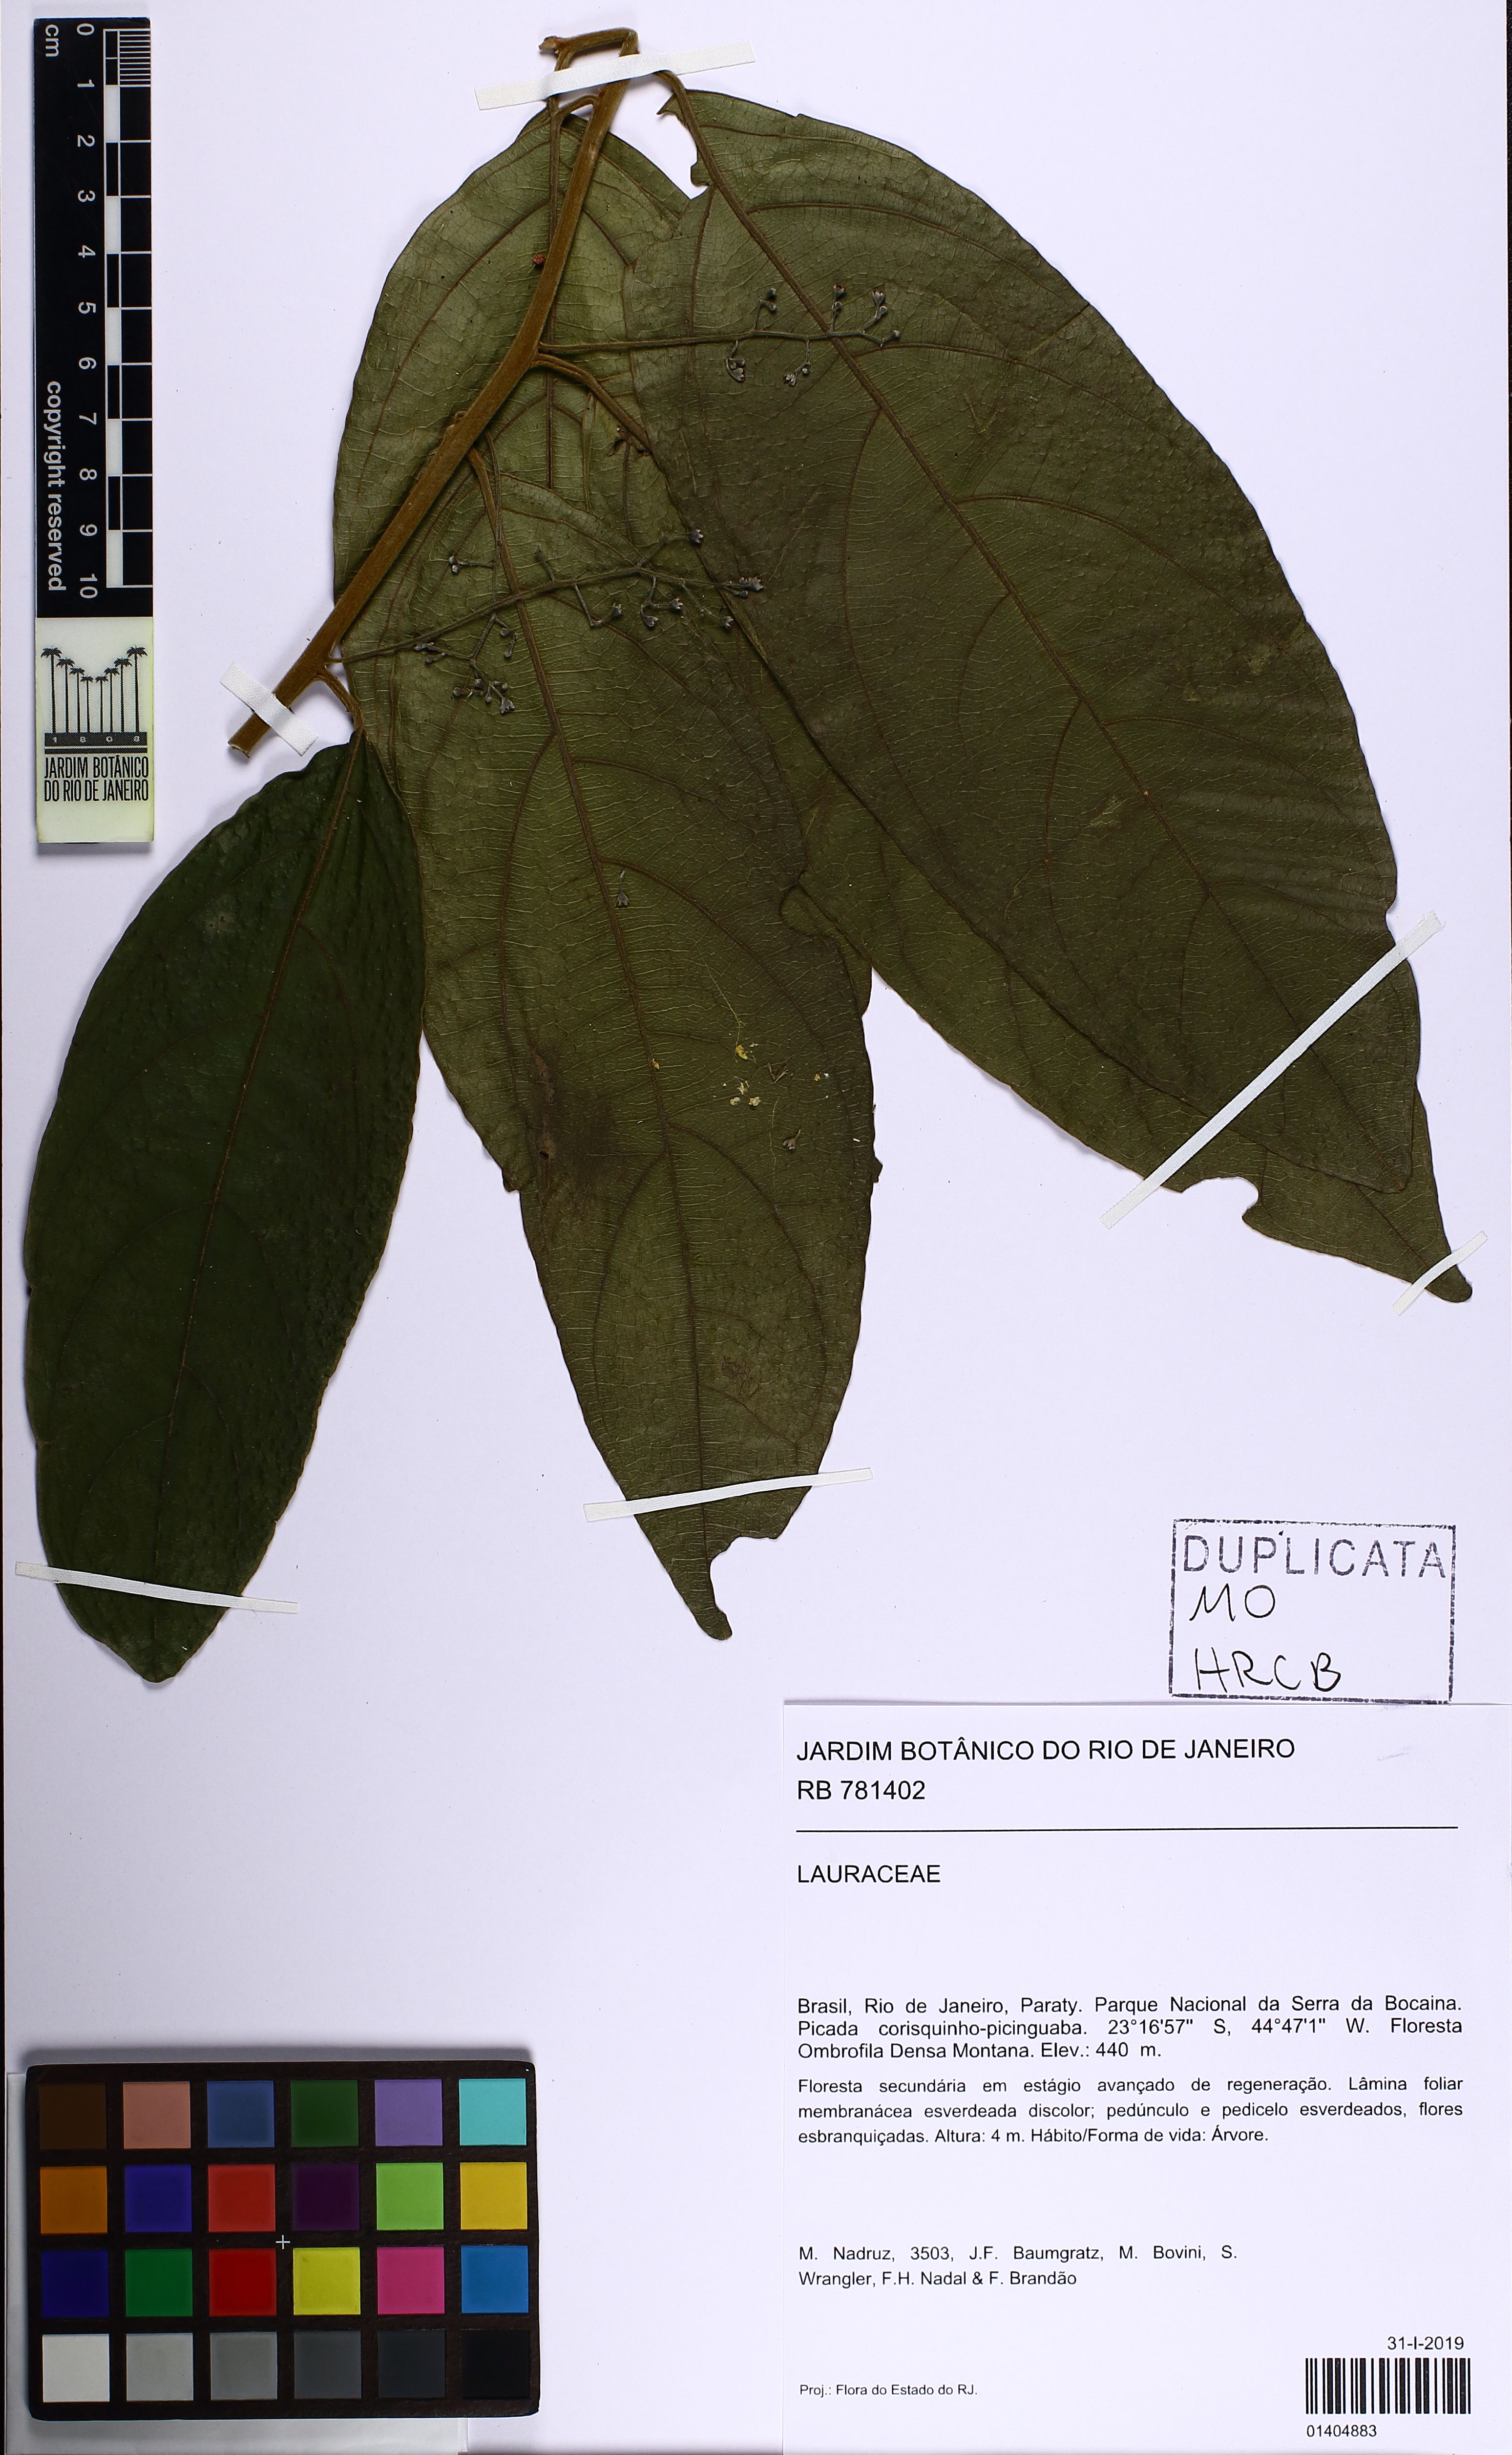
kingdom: Plantae
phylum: Tracheophyta
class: Magnoliopsida
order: Laurales
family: Lauraceae
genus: Endlicheria
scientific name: Endlicheria paniculata
